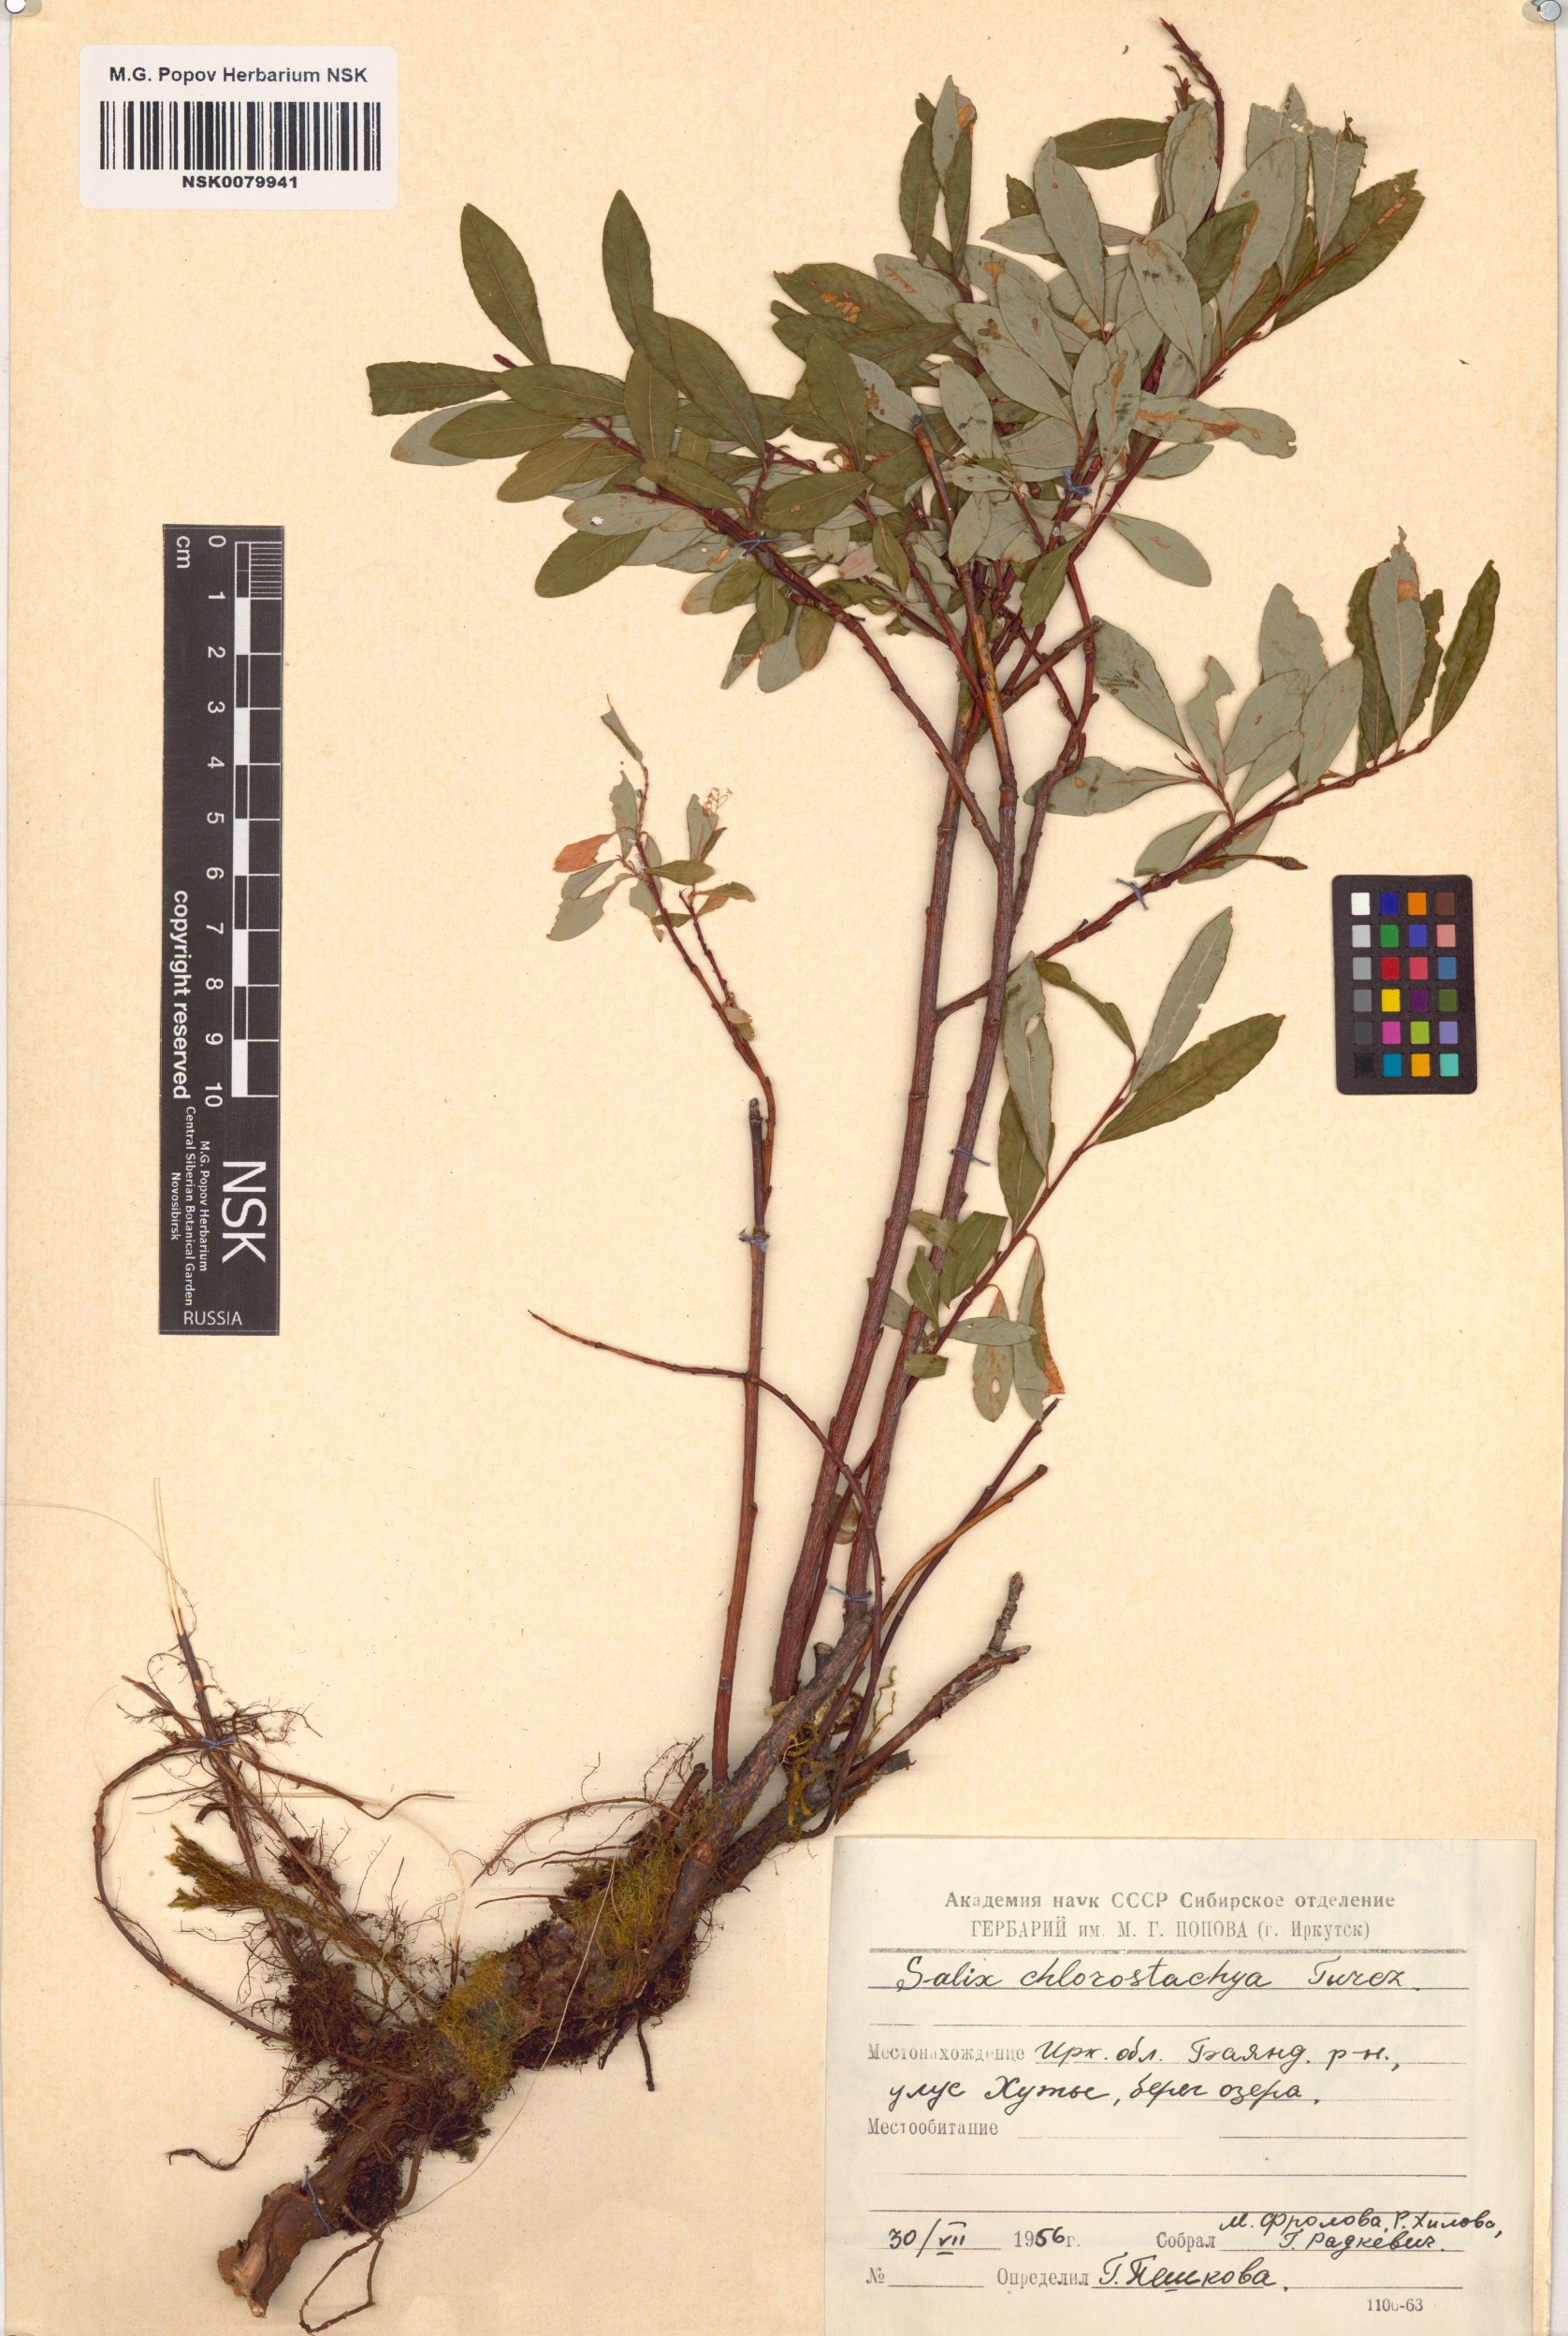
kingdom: Plantae
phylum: Tracheophyta
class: Magnoliopsida
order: Malpighiales
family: Salicaceae
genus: Salix
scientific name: Salix rhamnifolia
